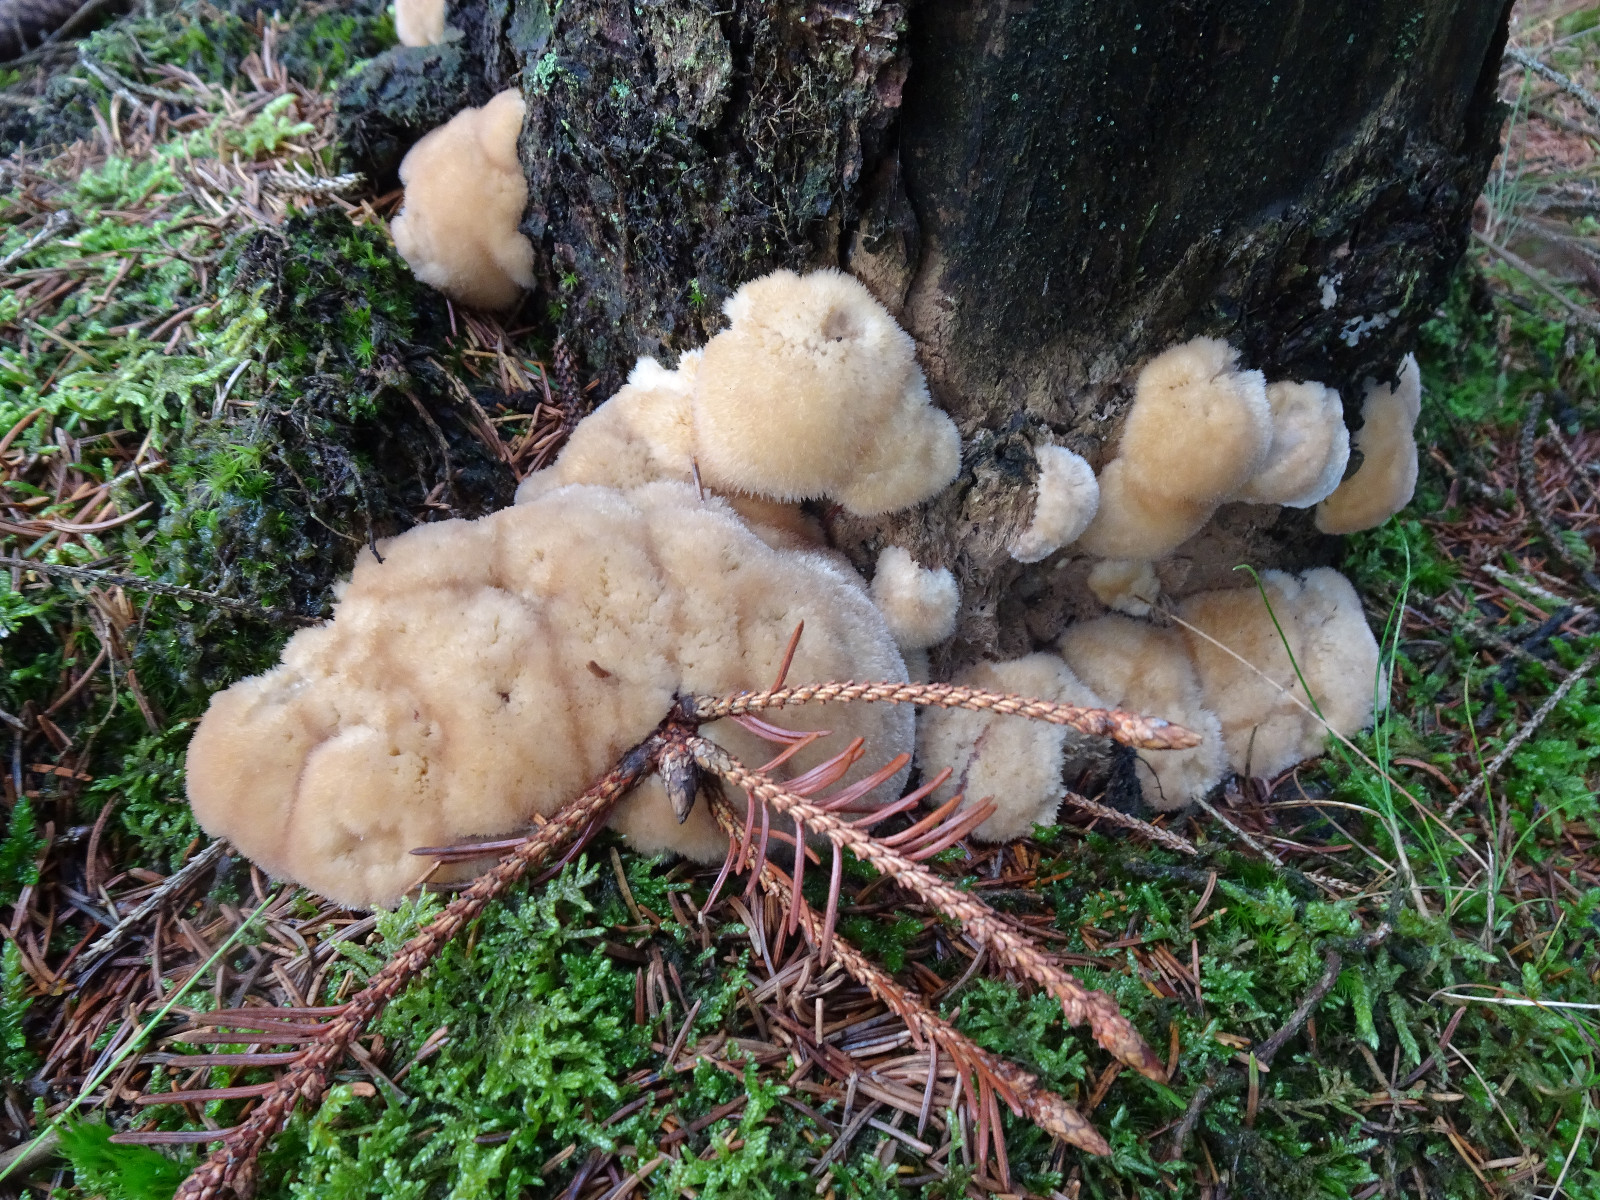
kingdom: Fungi
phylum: Basidiomycota
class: Agaricomycetes
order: Polyporales
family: Dacryobolaceae
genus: Postia
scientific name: Postia ptychogaster
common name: støvende kødporesvamp
